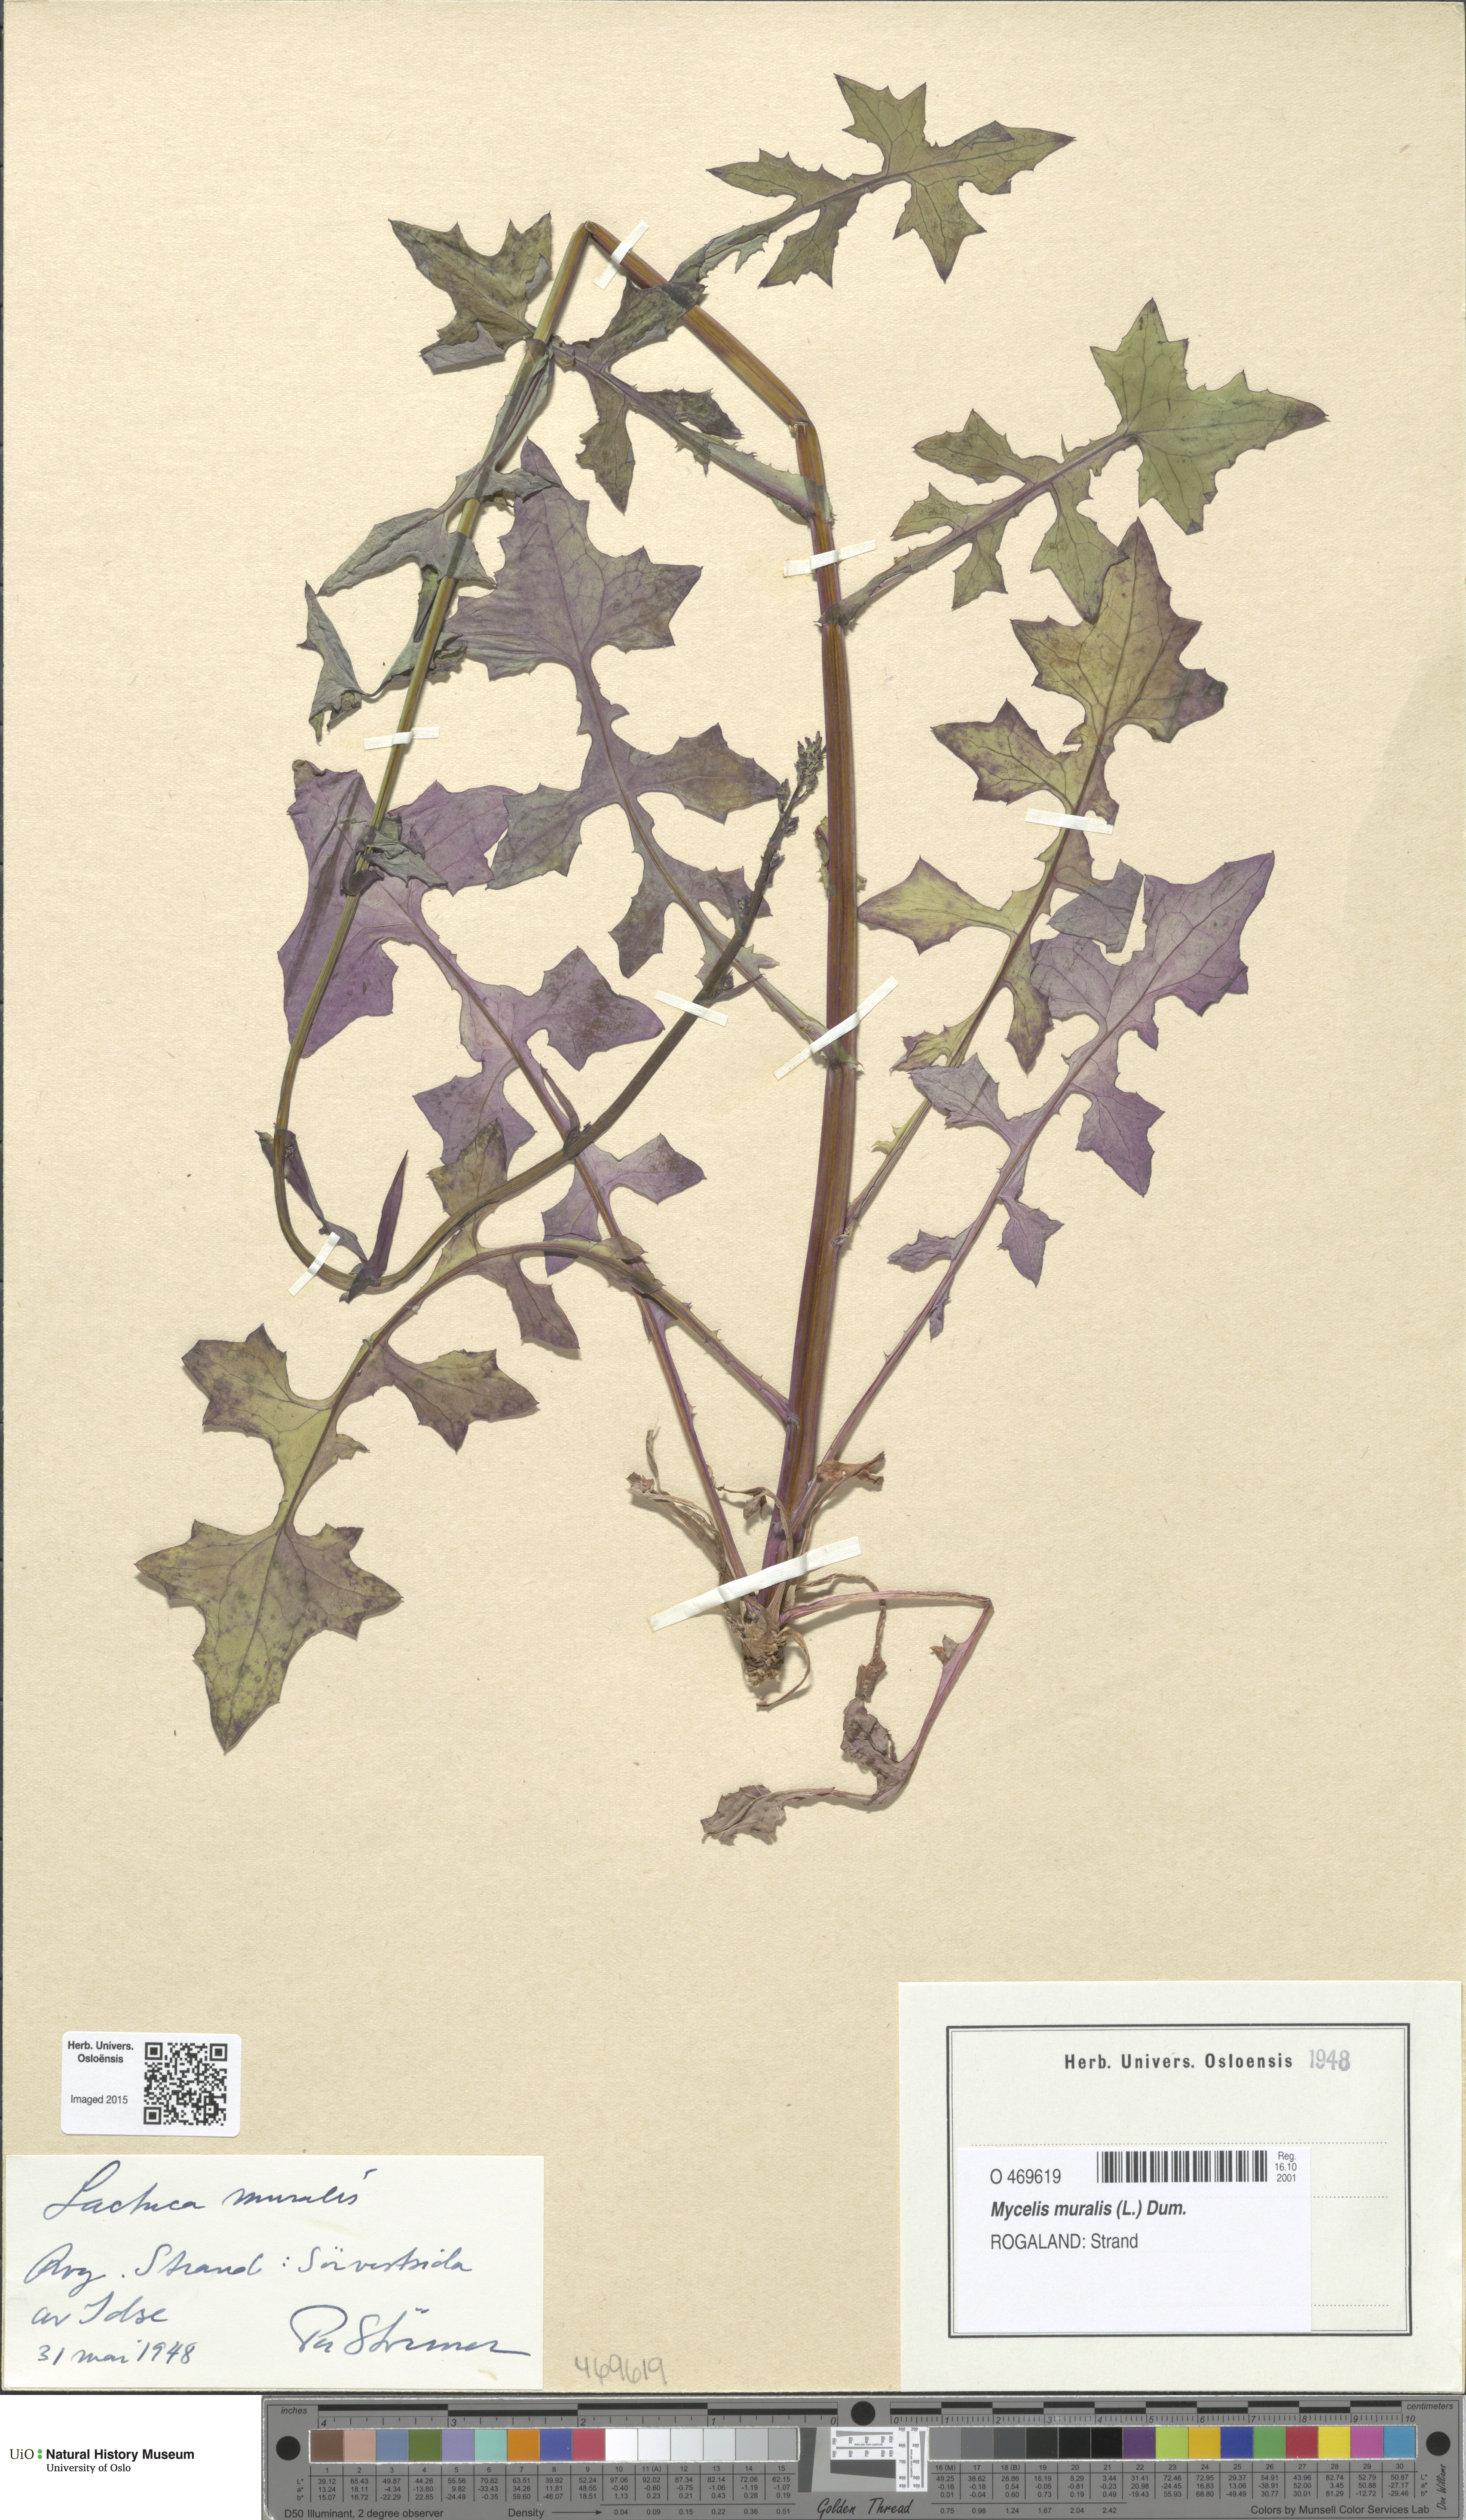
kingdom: Plantae
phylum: Tracheophyta
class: Magnoliopsida
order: Asterales
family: Asteraceae
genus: Mycelis
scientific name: Mycelis muralis
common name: Wall lettuce
